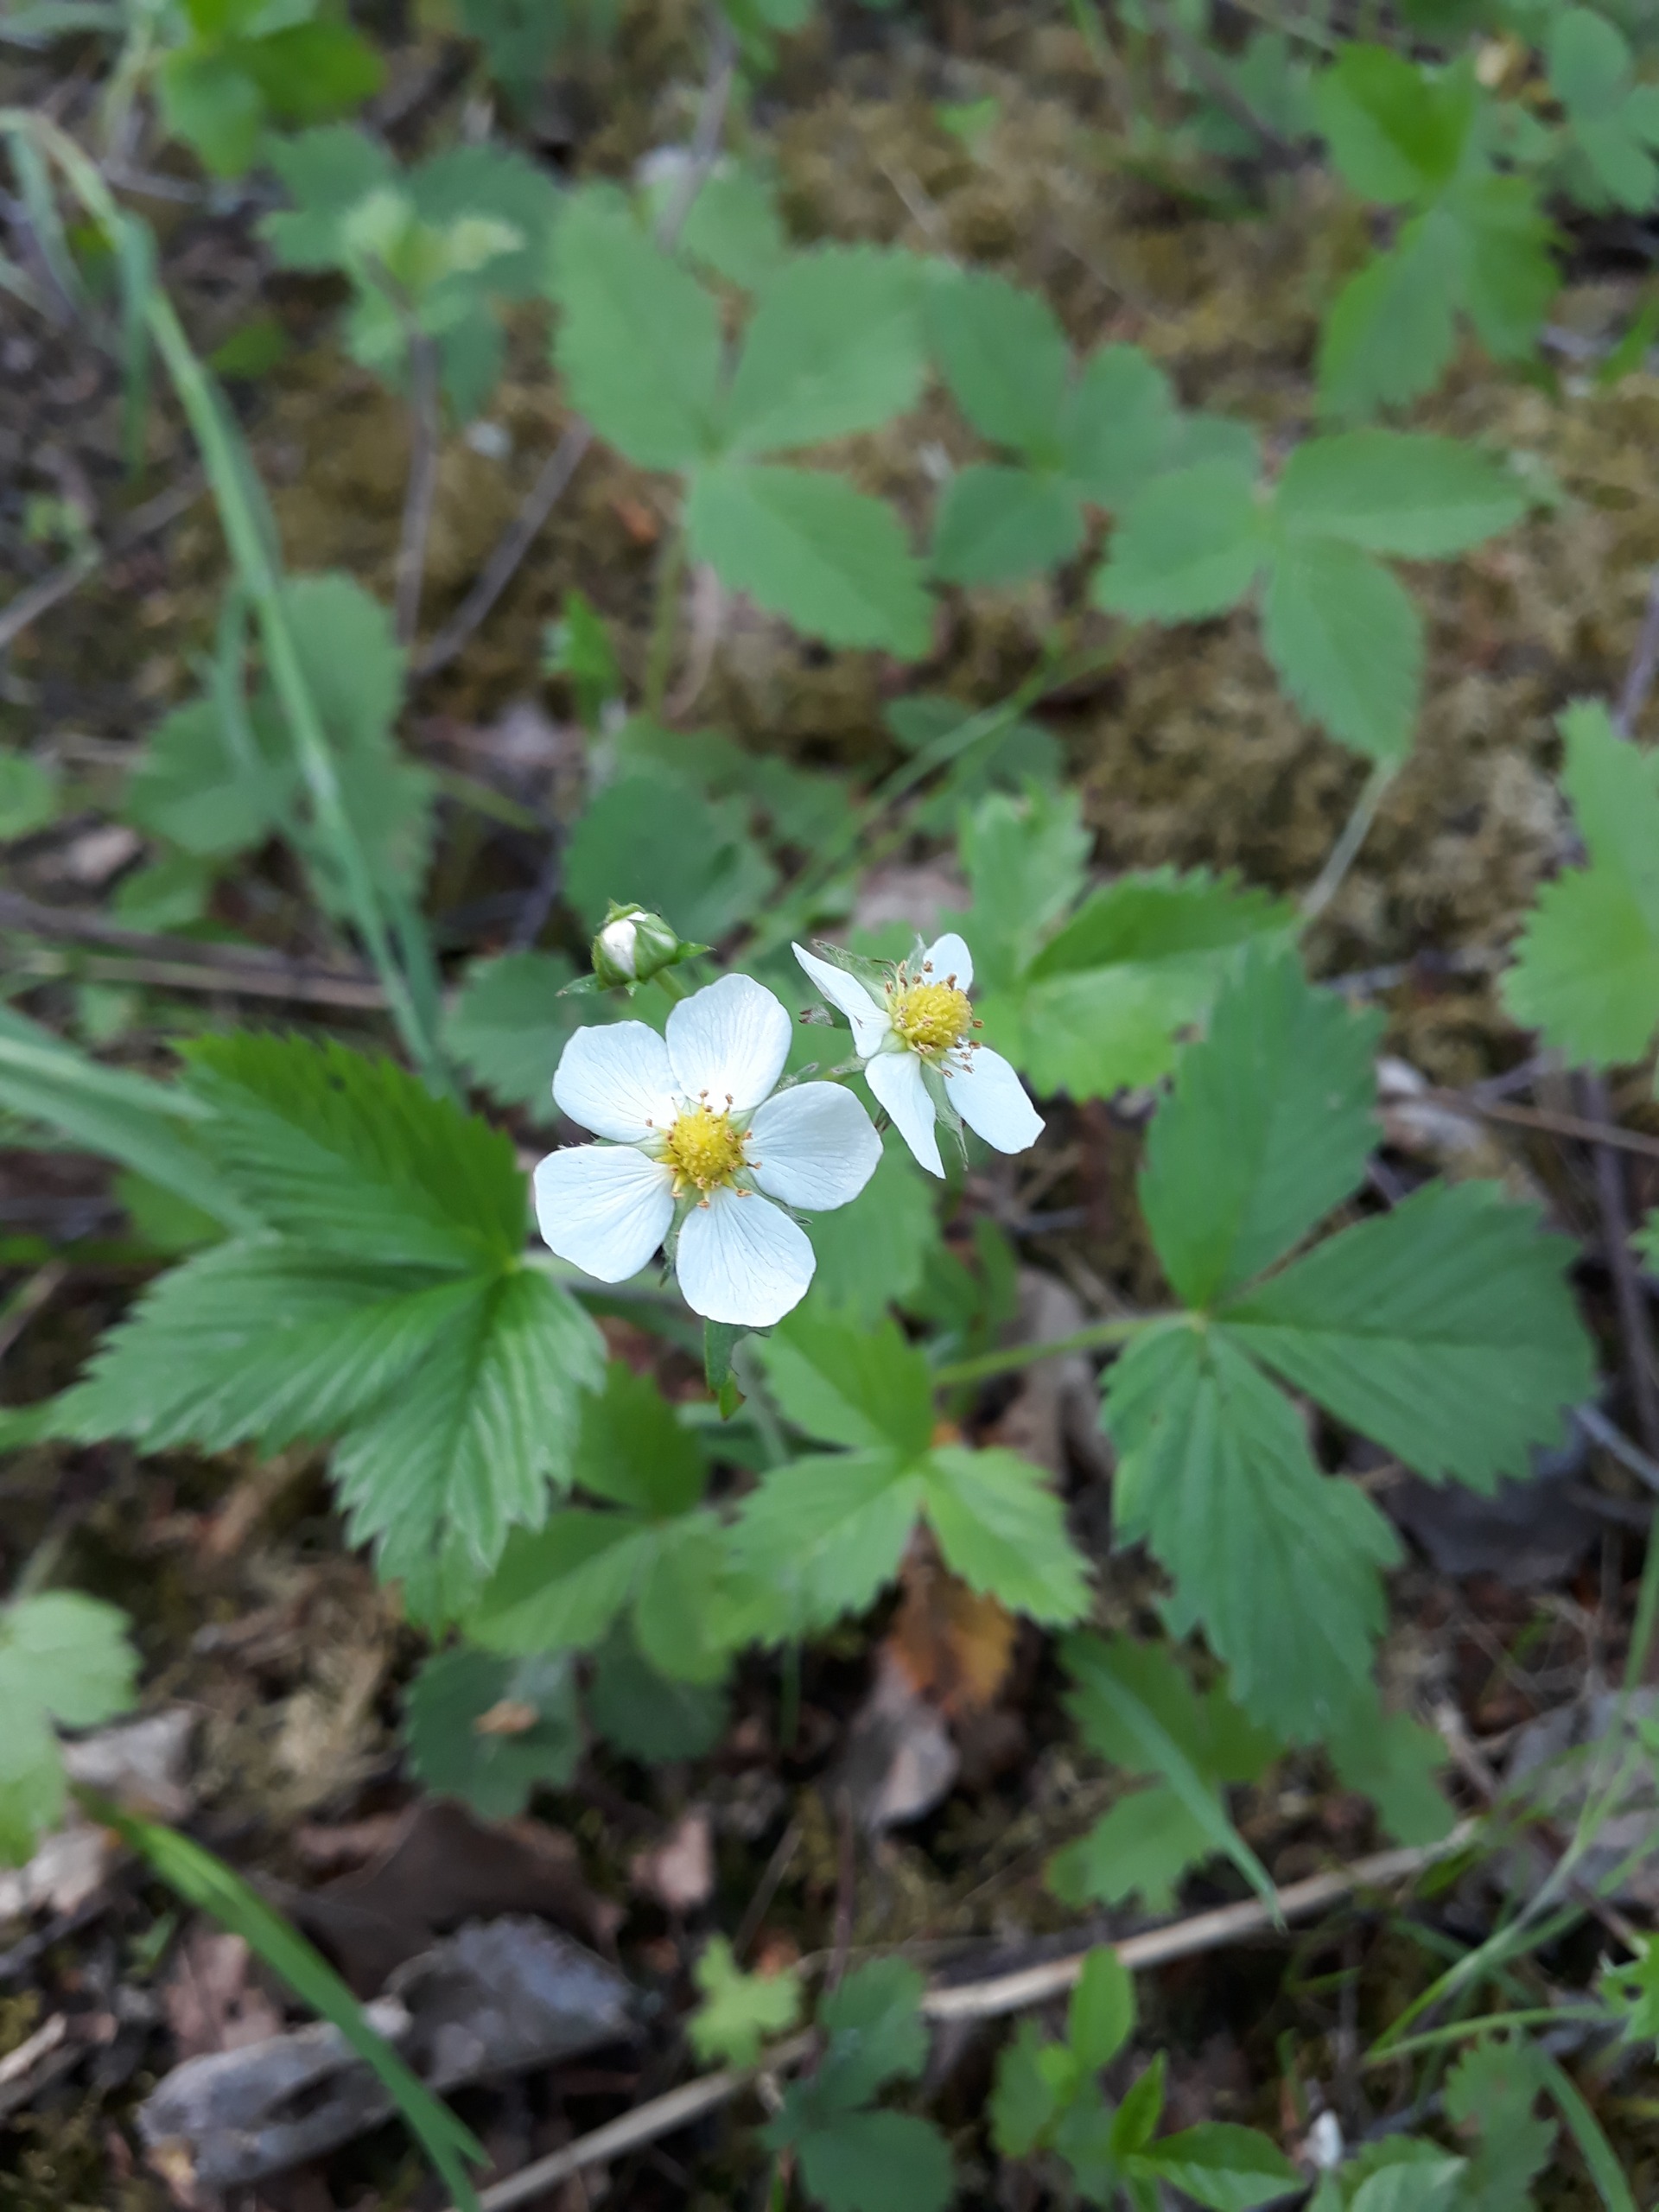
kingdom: Plantae
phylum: Tracheophyta
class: Magnoliopsida
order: Rosales
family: Rosaceae
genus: Fragaria
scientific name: Fragaria vesca
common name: Skov-jordbær
